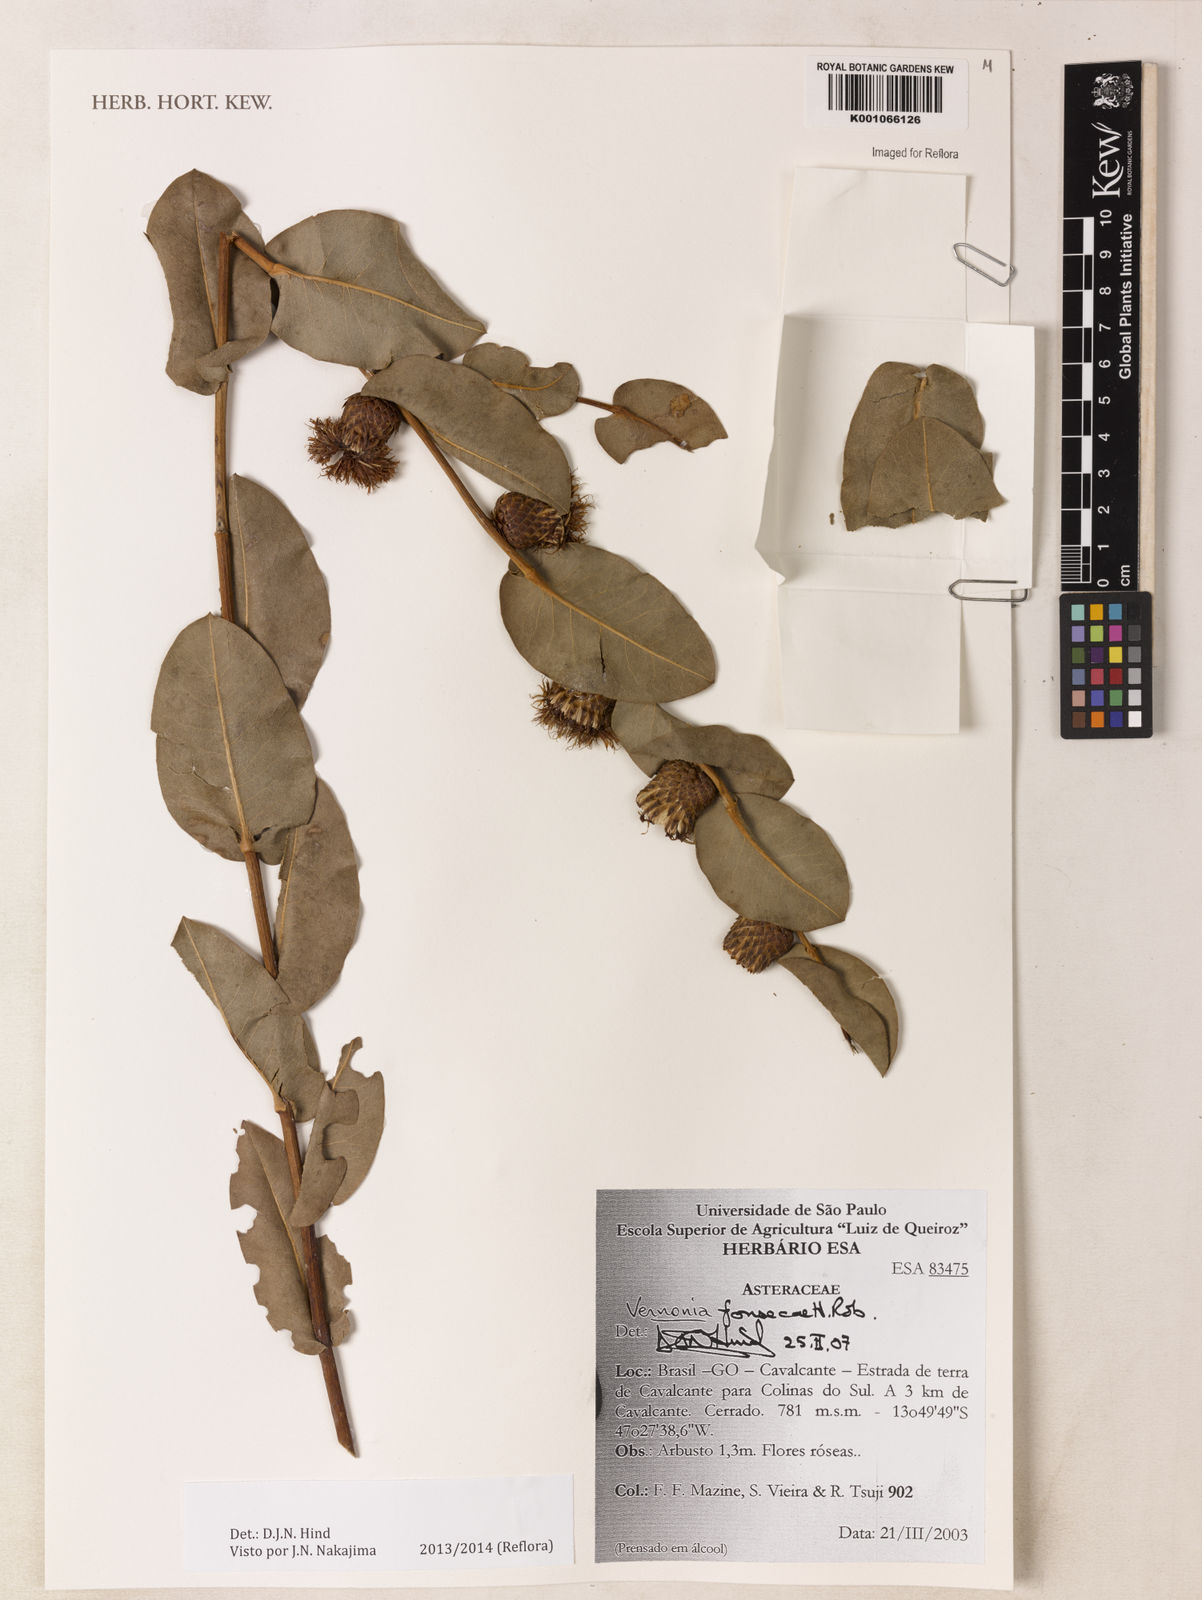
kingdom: Plantae
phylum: Tracheophyta
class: Magnoliopsida
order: Asterales
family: Asteraceae
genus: Lessingianthus
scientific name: Lessingianthus fonsecae
